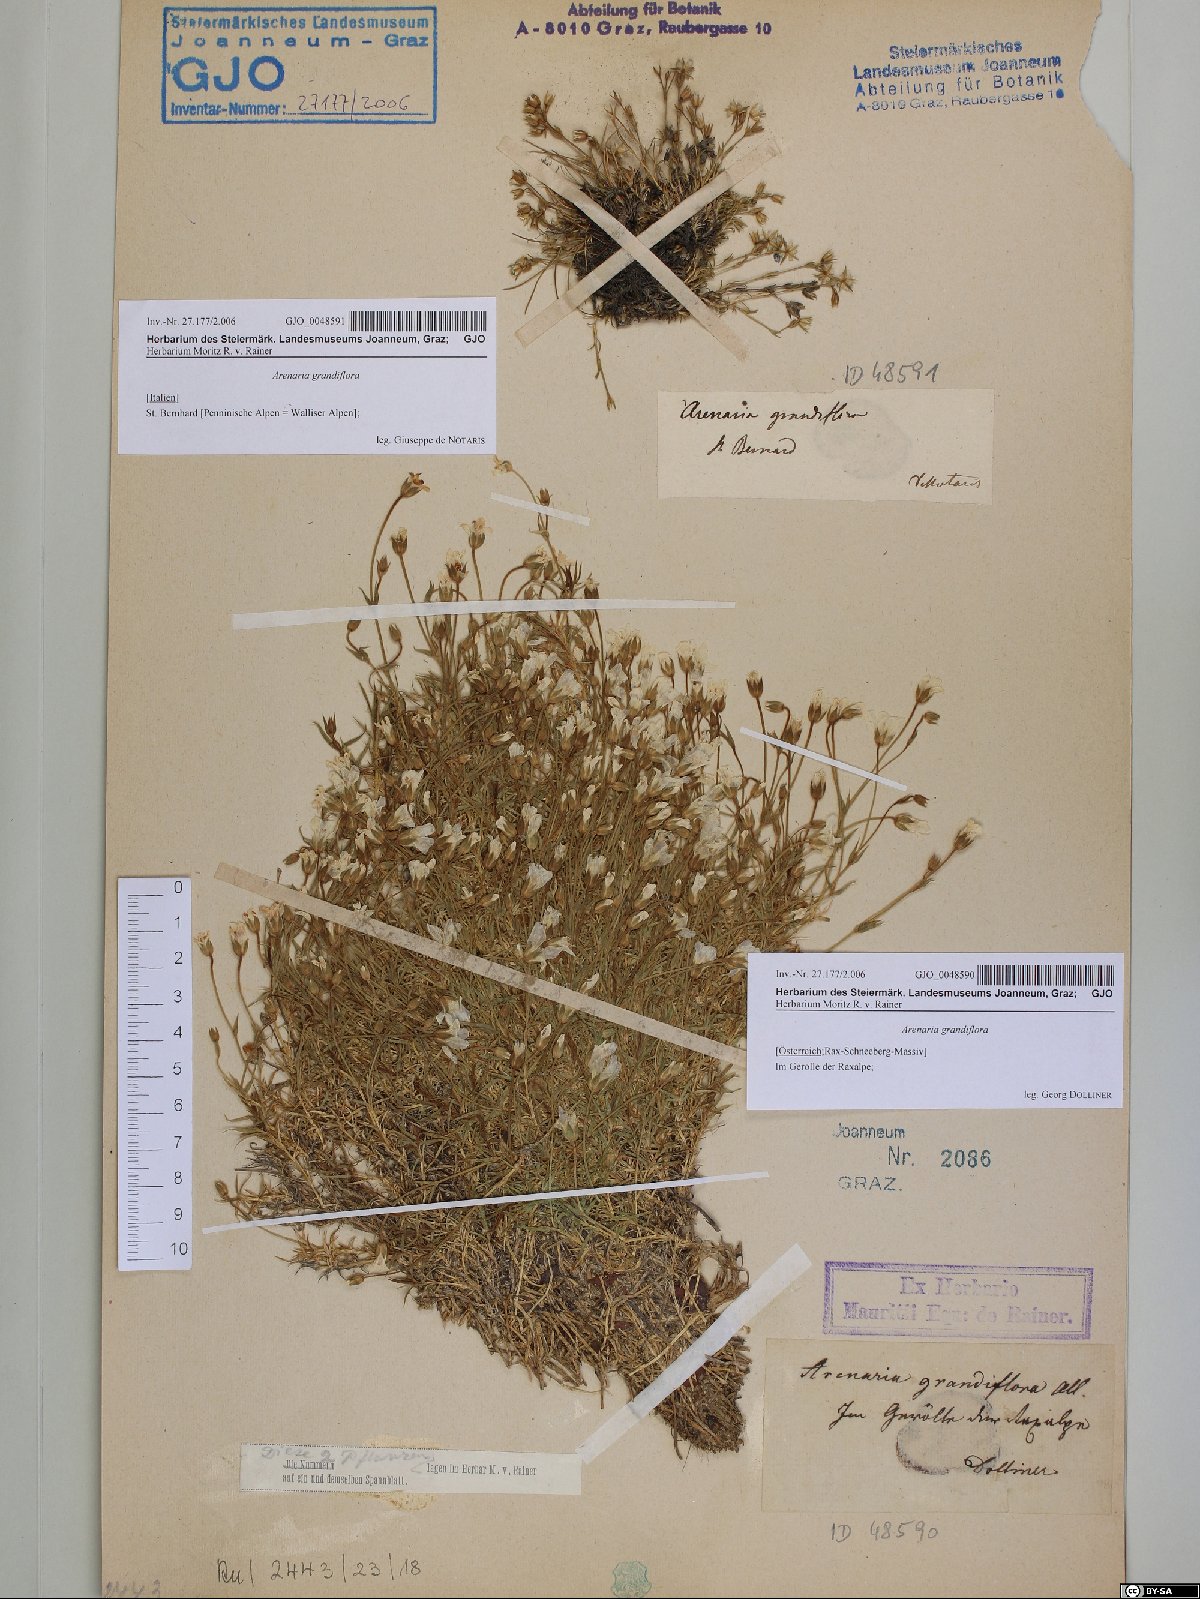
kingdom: Plantae
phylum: Tracheophyta
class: Magnoliopsida
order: Caryophyllales
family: Caryophyllaceae
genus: Arenaria
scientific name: Arenaria grandiflora
